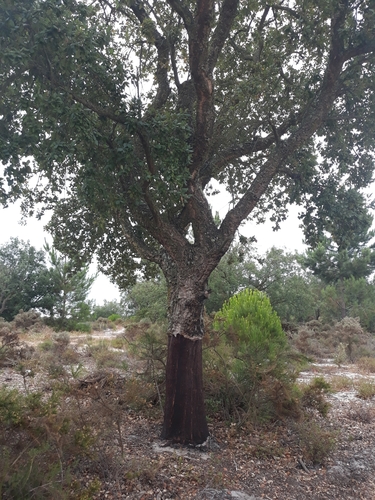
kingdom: Plantae
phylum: Tracheophyta
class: Magnoliopsida
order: Fagales
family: Fagaceae
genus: Quercus
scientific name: Quercus suber
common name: Cork oak
